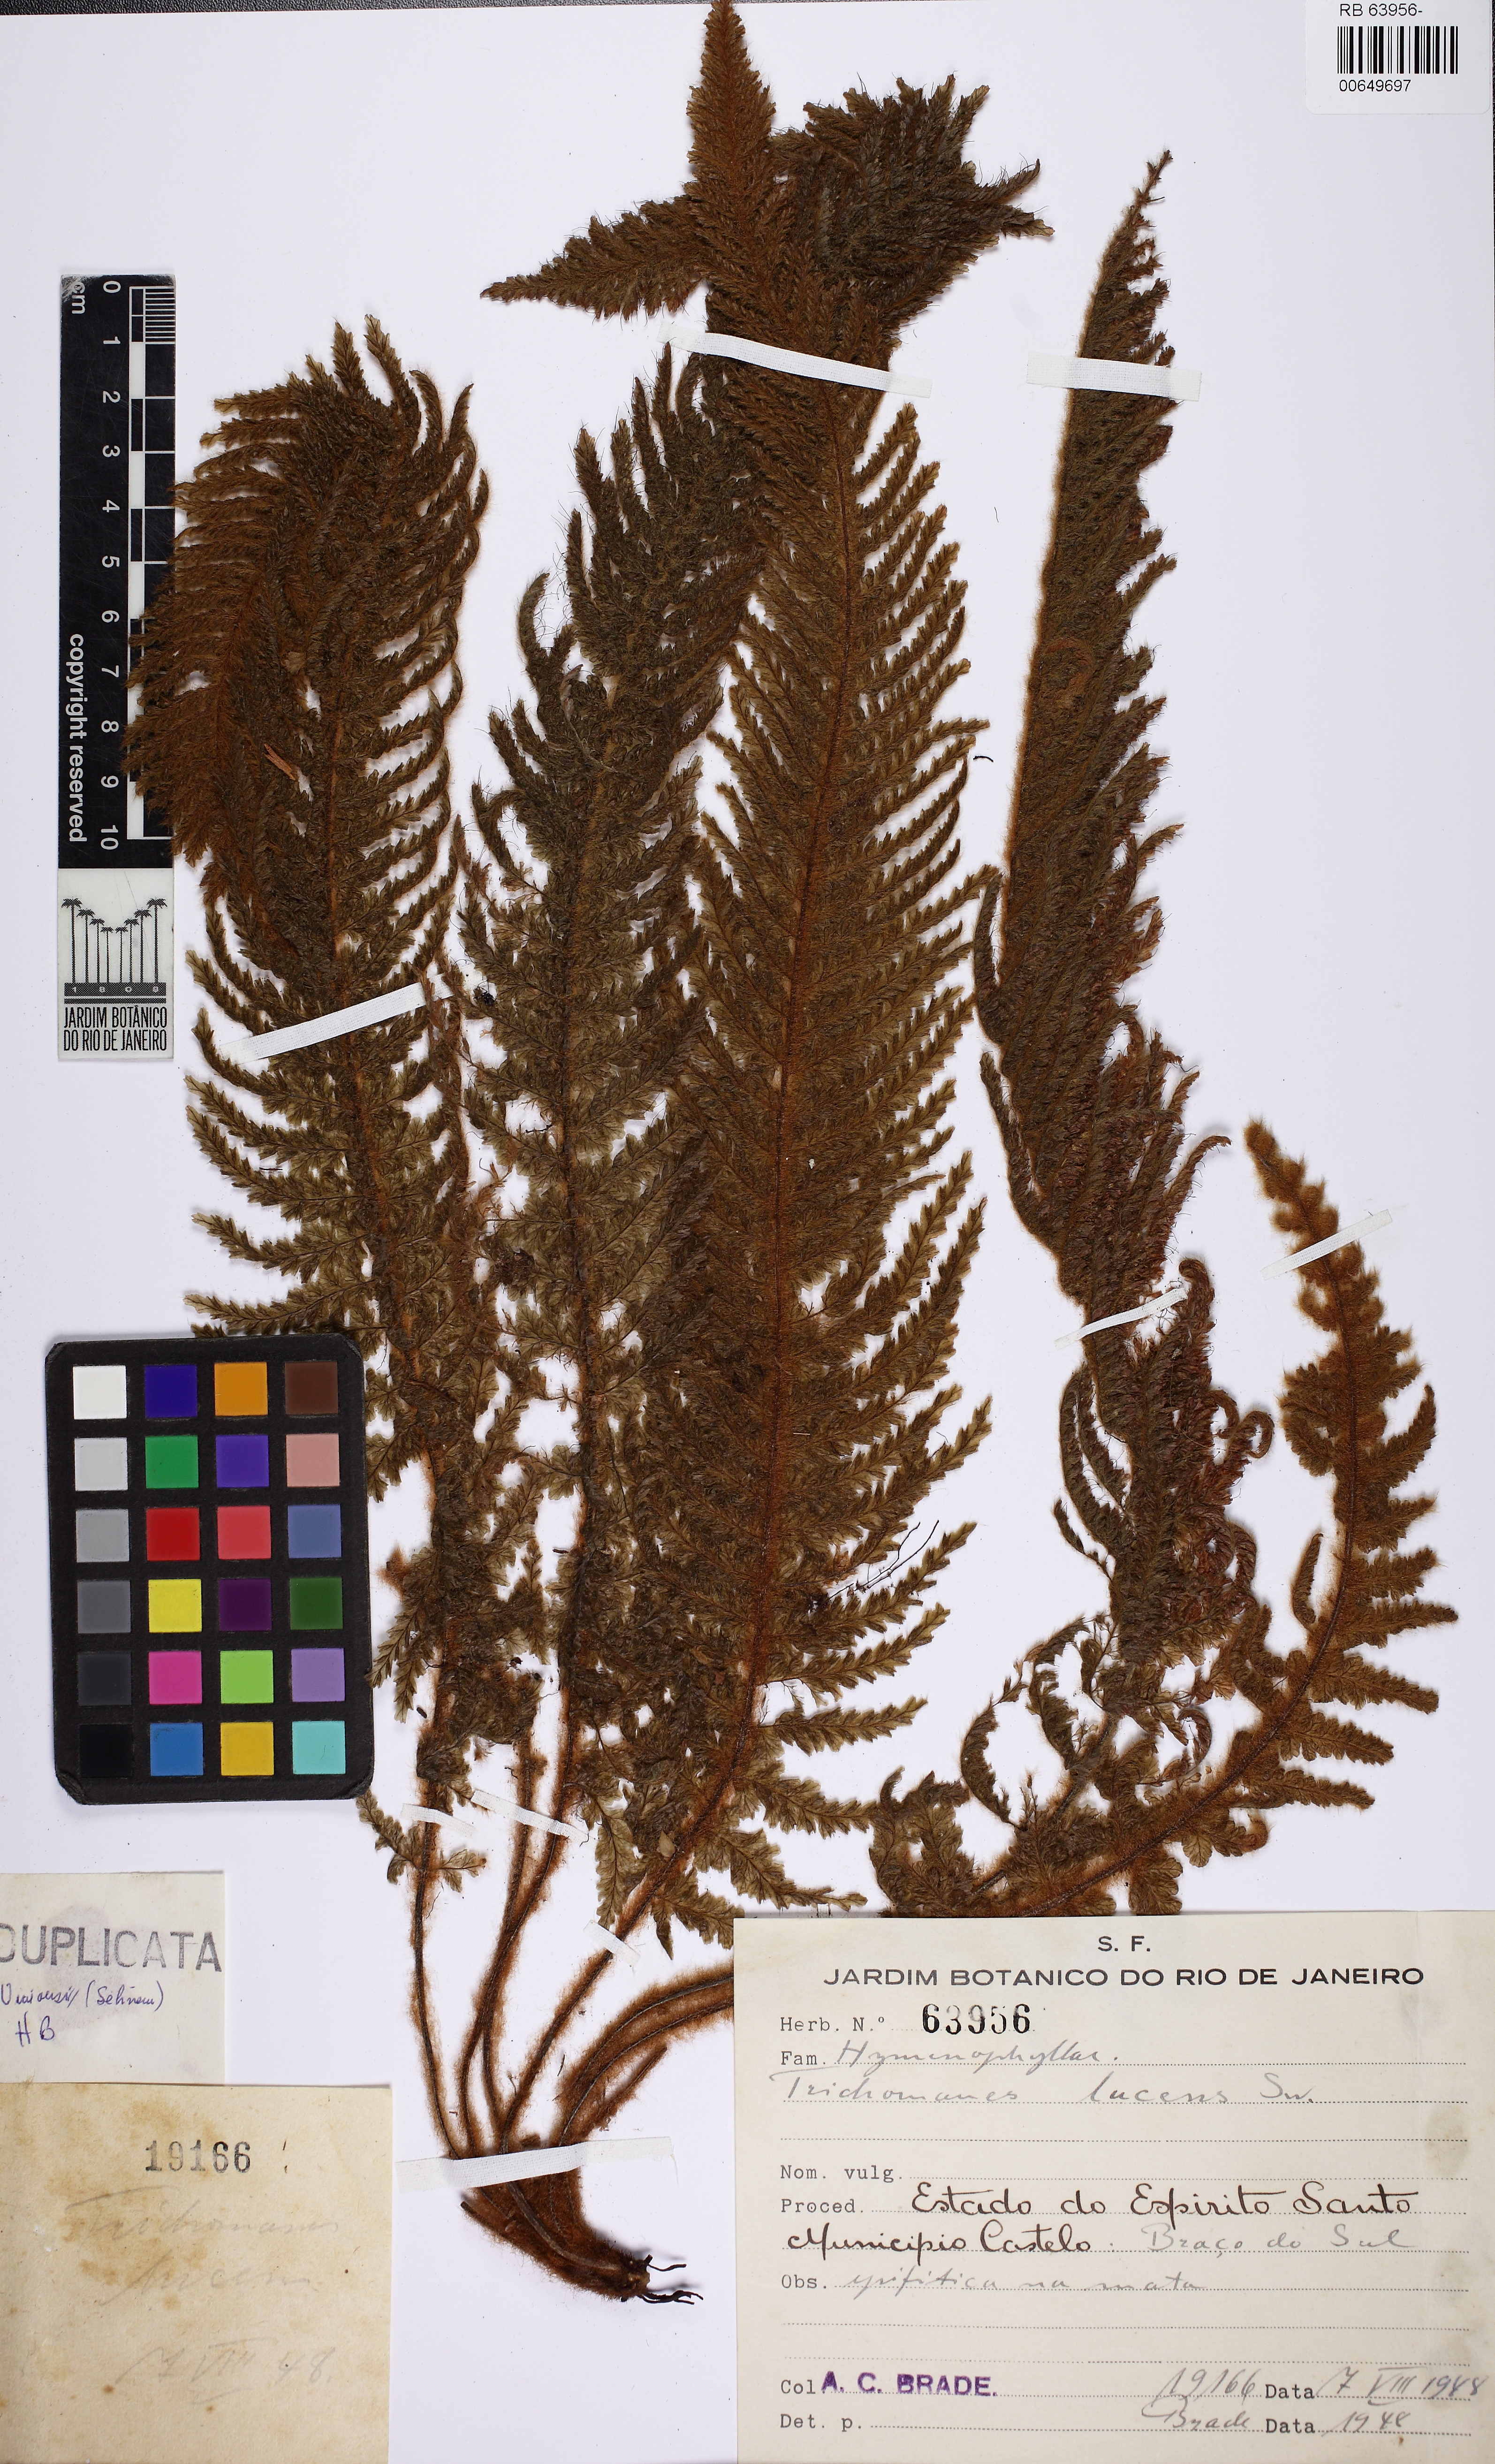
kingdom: Plantae
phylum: Tracheophyta
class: Polypodiopsida
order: Hymenophyllales
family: Hymenophyllaceae
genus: Trichomanes
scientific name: Trichomanes lucens
